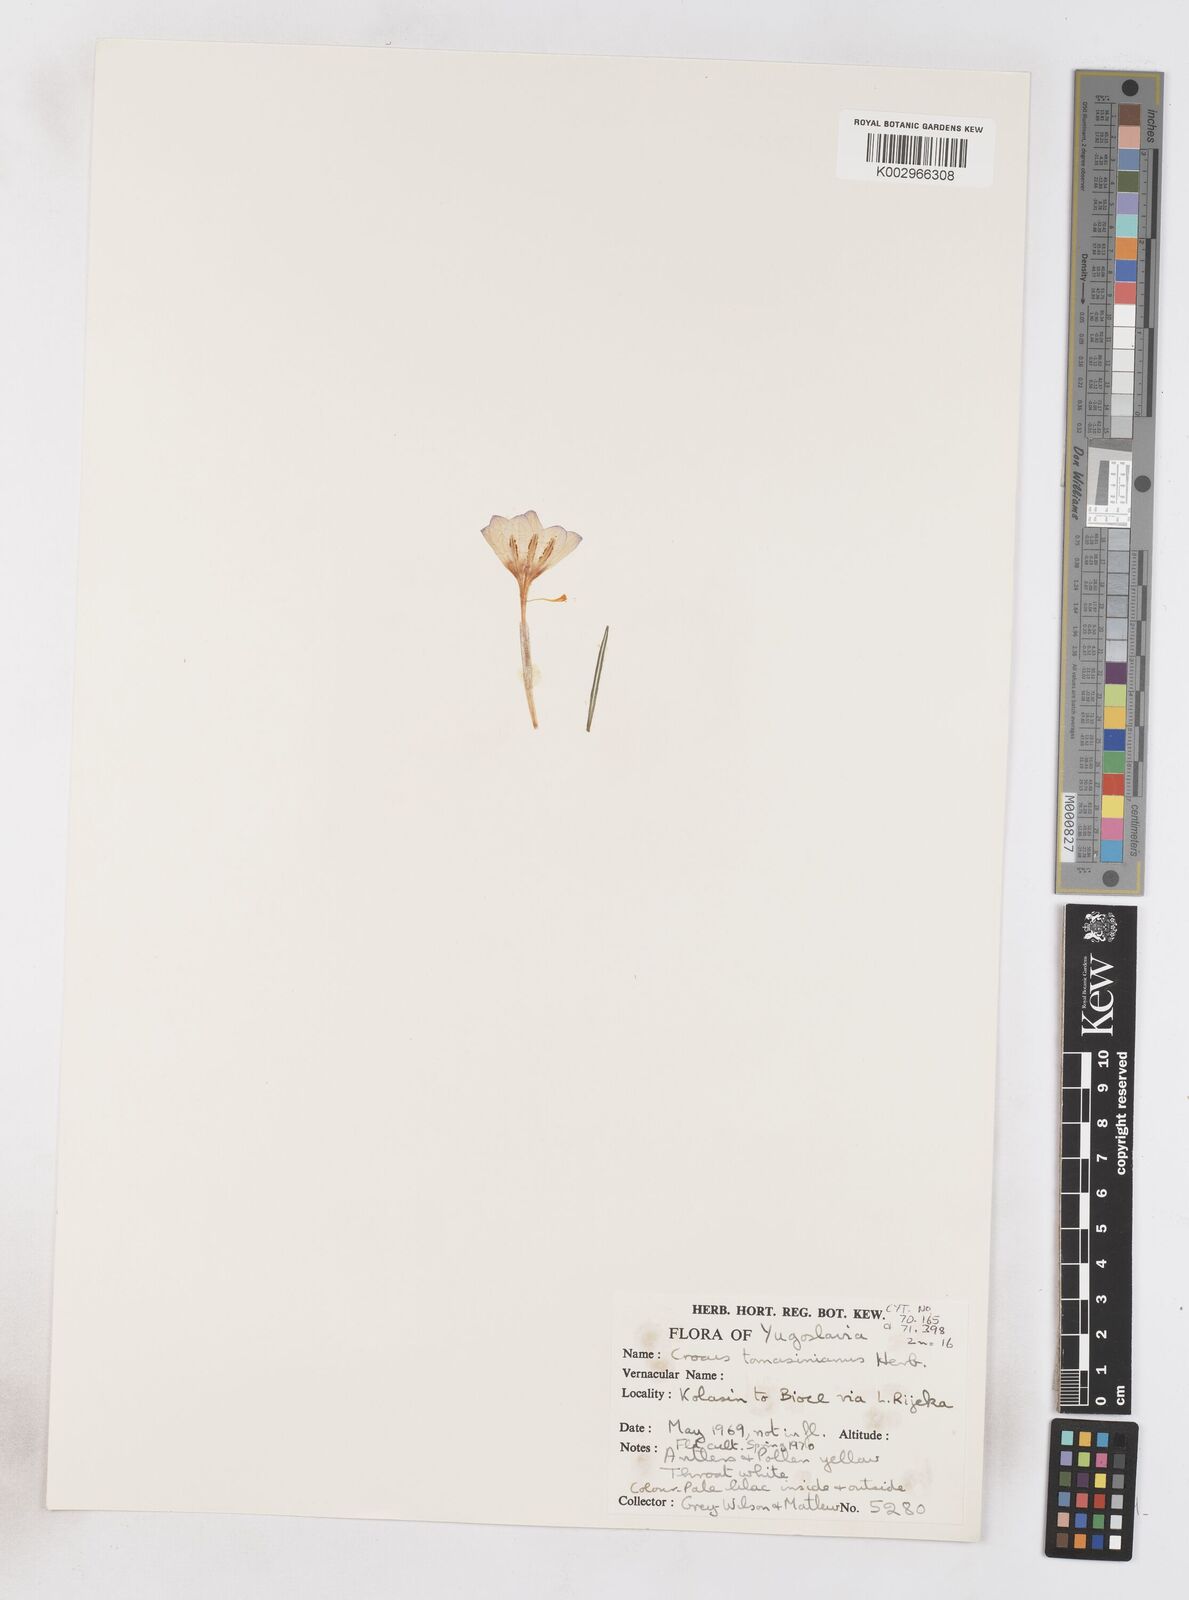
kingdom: Plantae
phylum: Tracheophyta
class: Liliopsida
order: Asparagales
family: Iridaceae
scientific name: Iridaceae
